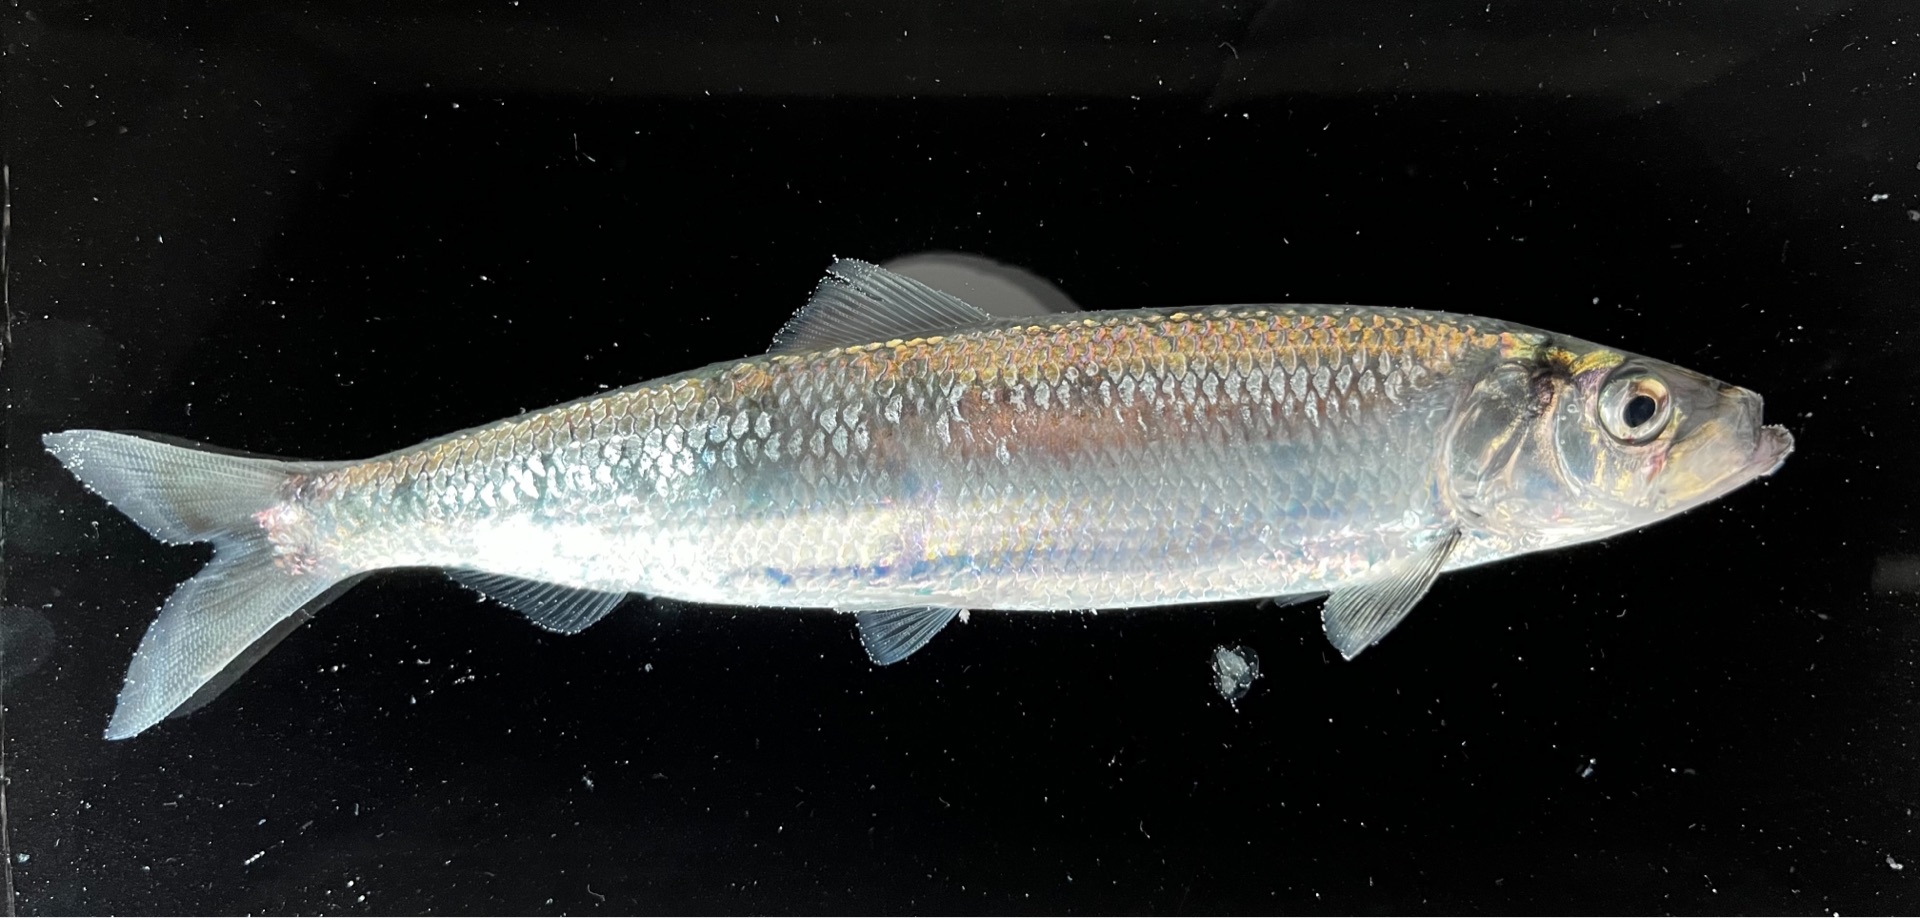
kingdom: Animalia
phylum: Chordata
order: Clupeiformes
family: Clupeidae
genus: Clupea
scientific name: Clupea harengus
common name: Sild
